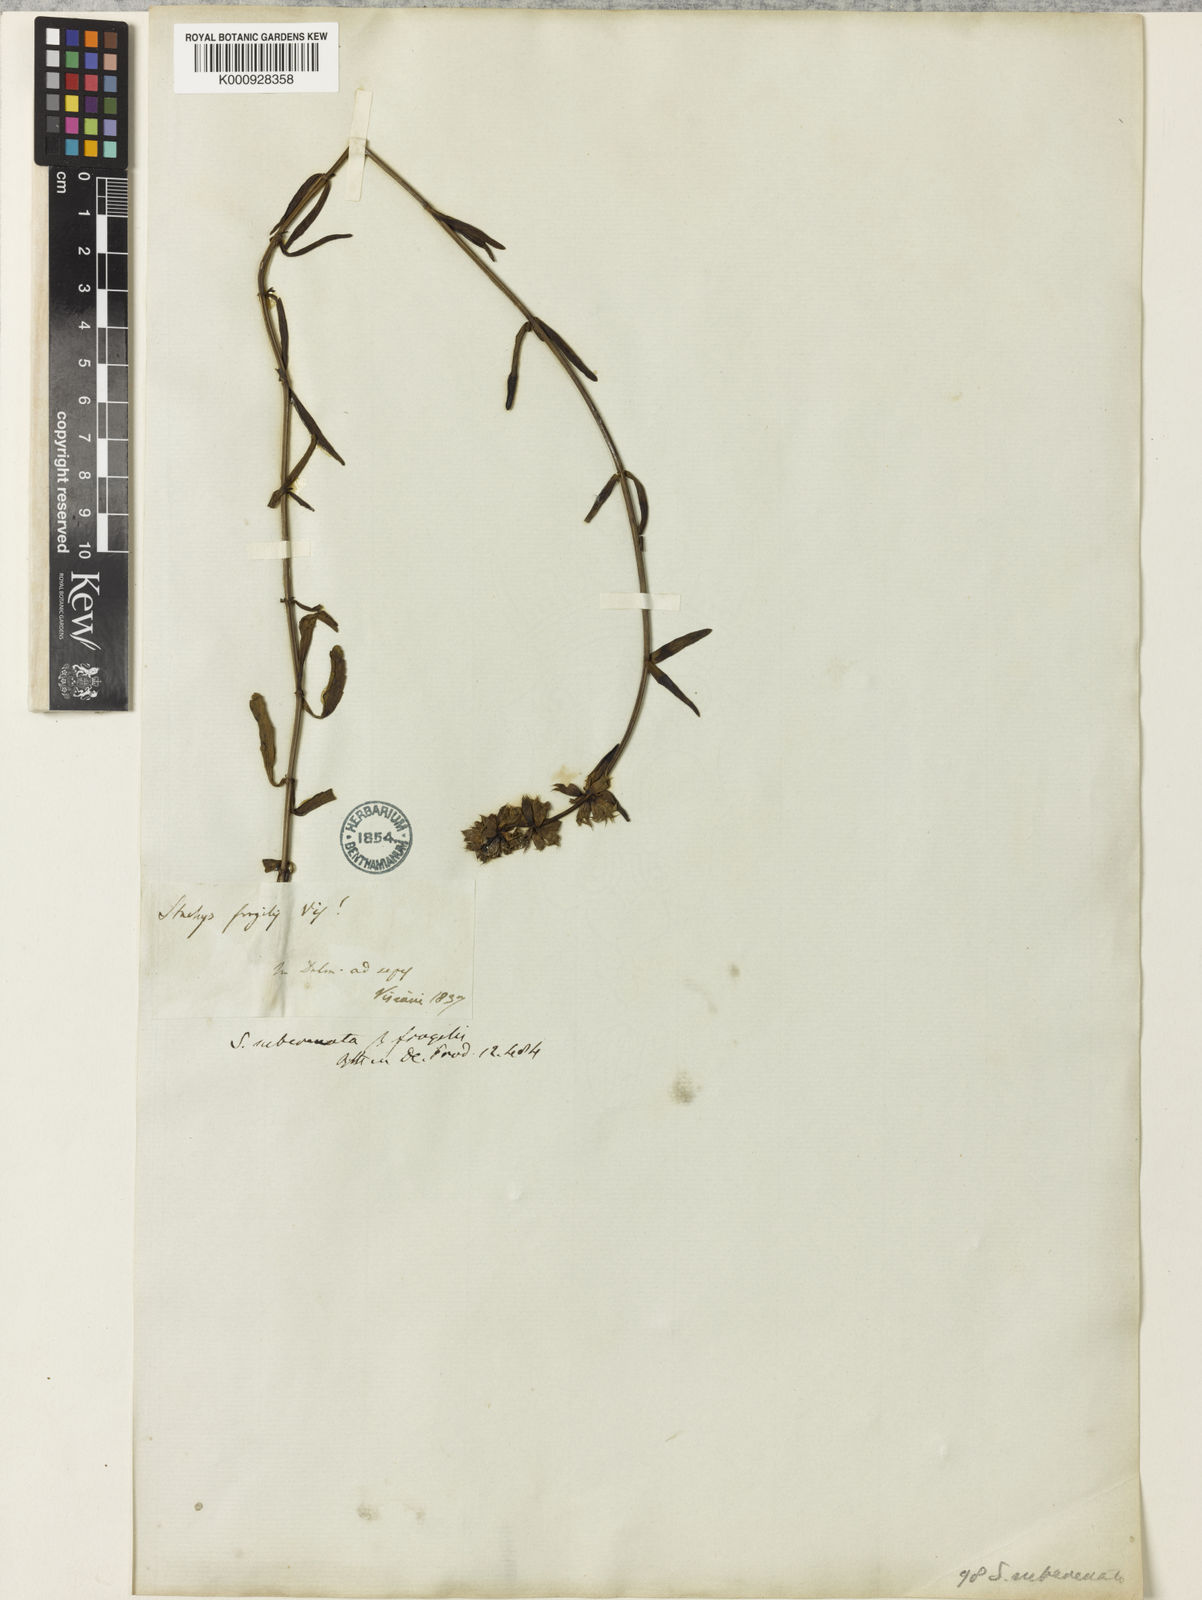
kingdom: Plantae
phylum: Tracheophyta
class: Magnoliopsida
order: Lamiales
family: Lamiaceae
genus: Stachys
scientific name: Stachys recta
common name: Perennial yellow-woundwort
